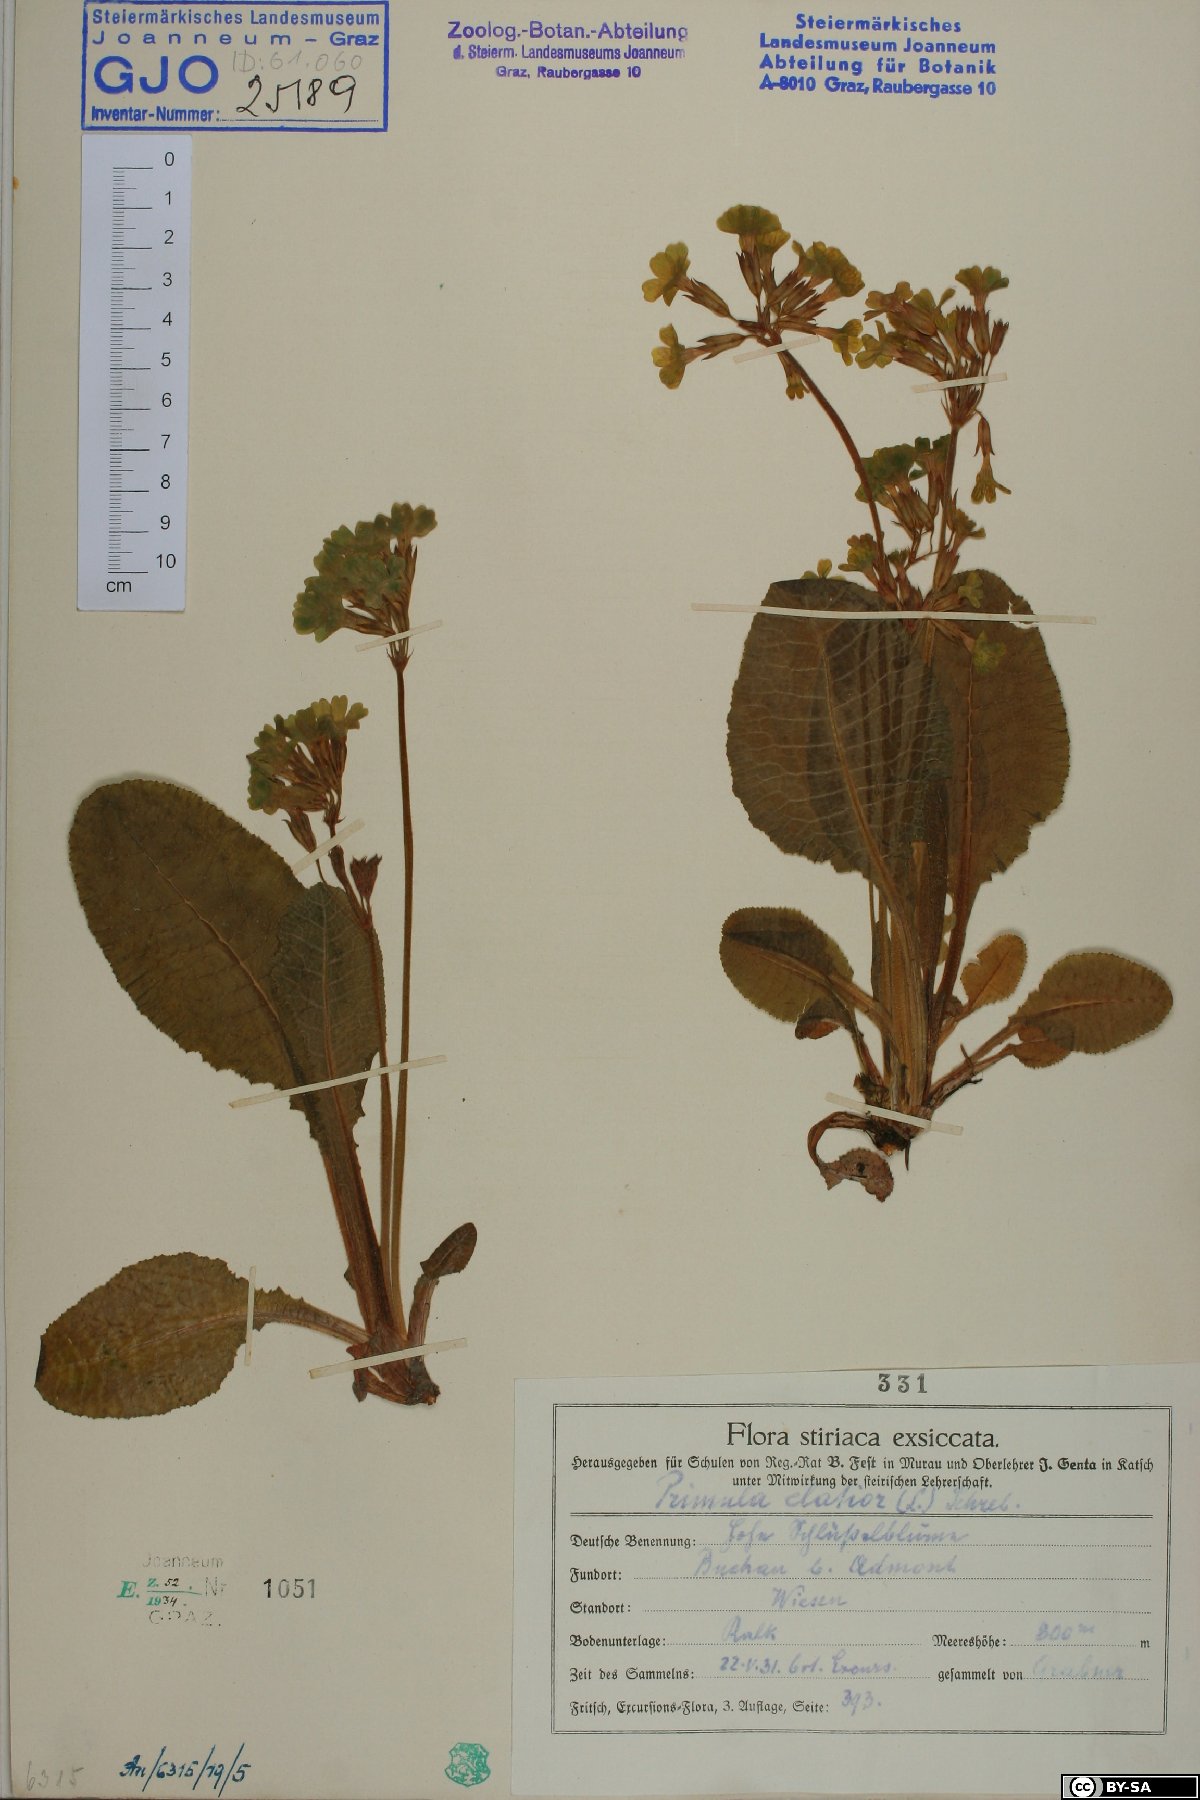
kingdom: Plantae
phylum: Tracheophyta
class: Magnoliopsida
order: Ericales
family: Primulaceae
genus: Primula
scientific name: Primula elatior
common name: Oxlip
